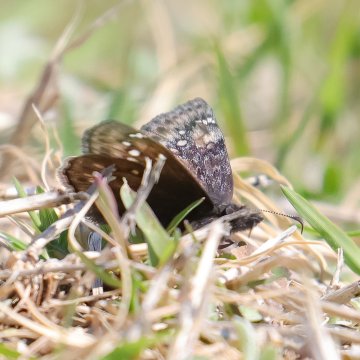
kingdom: Animalia
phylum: Arthropoda
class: Insecta
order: Lepidoptera
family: Hesperiidae
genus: Gesta
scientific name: Gesta
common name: Juvenal's Duskywing
